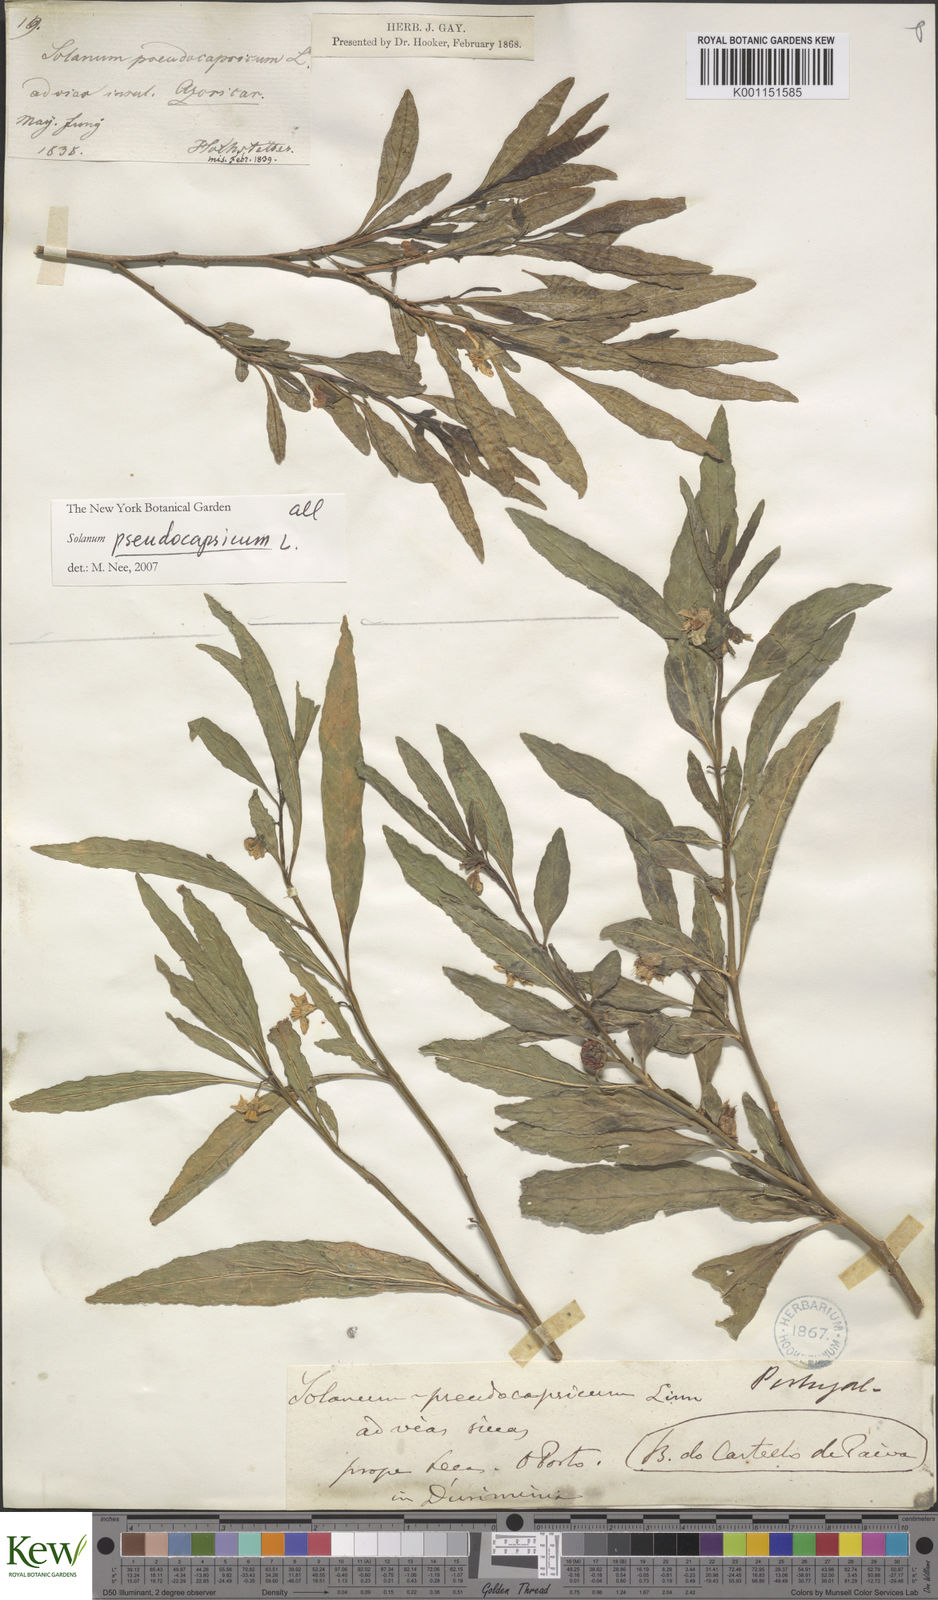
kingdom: Plantae
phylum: Tracheophyta
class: Magnoliopsida
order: Solanales
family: Solanaceae
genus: Solanum
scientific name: Solanum pseudocapsicum
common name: Jerusalem cherry
